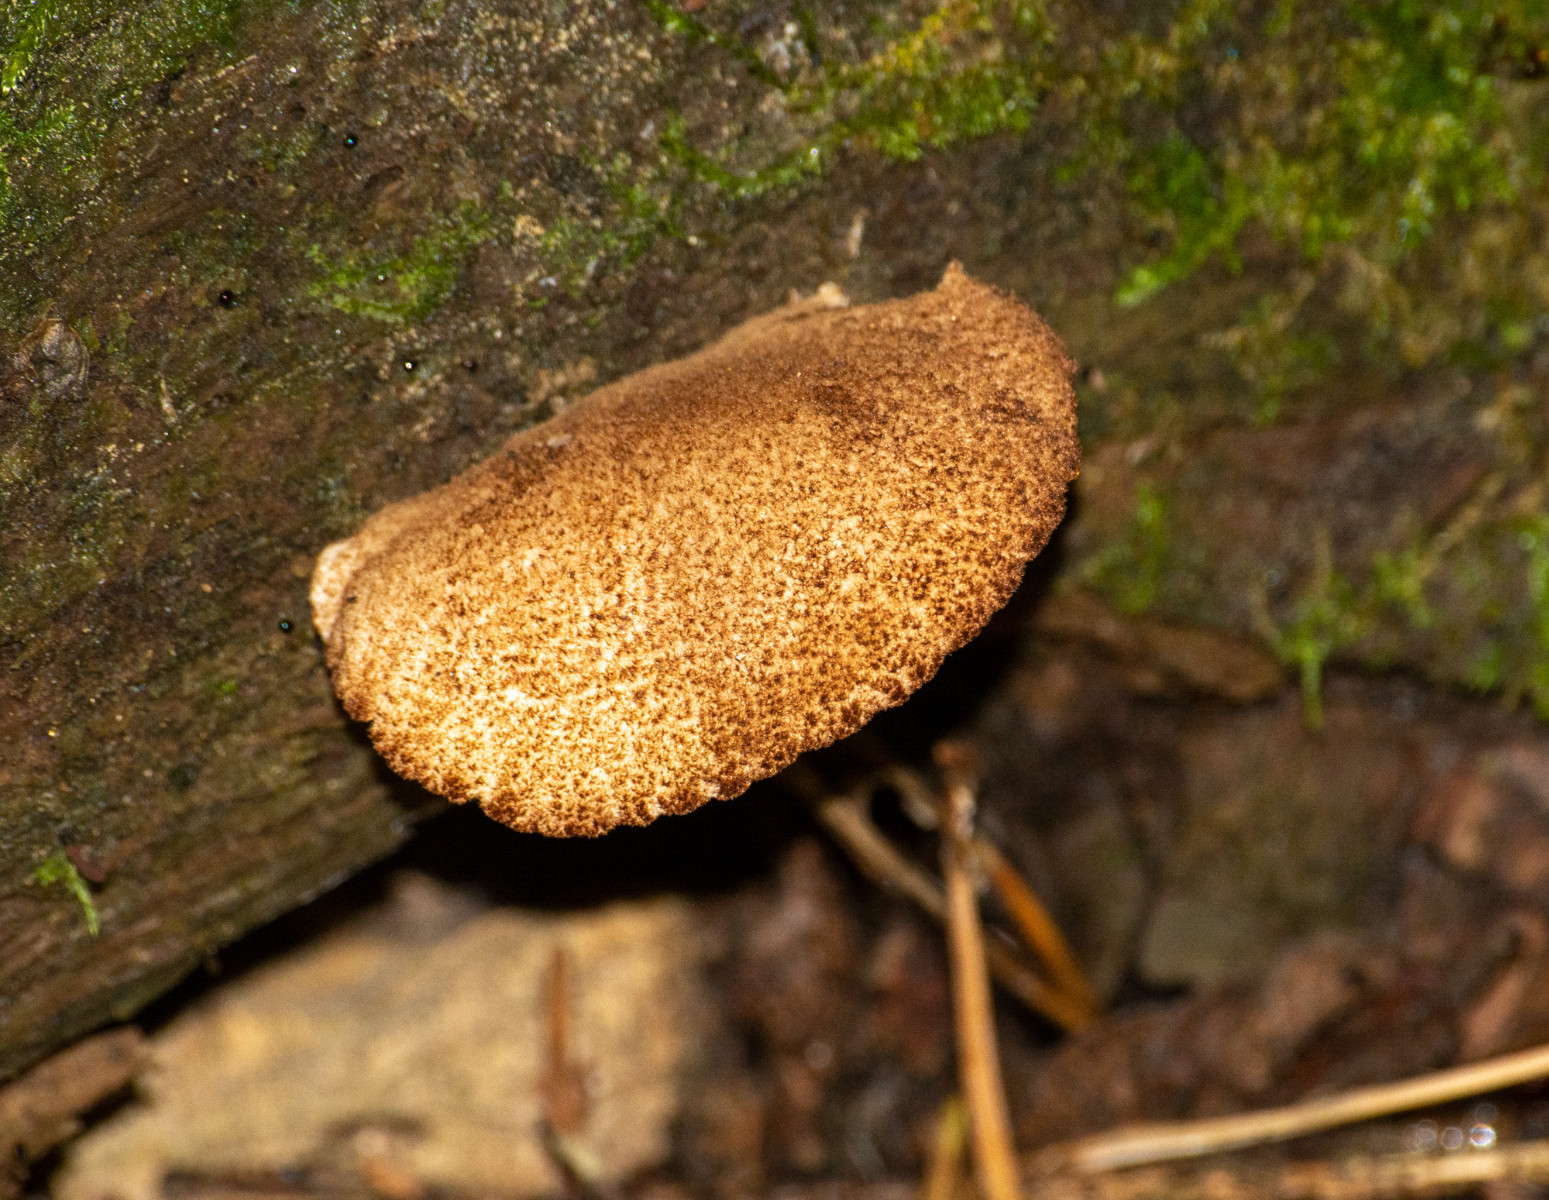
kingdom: Fungi
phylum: Basidiomycota
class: Agaricomycetes
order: Agaricales
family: Crepidotaceae
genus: Crepidotus
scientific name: Crepidotus
